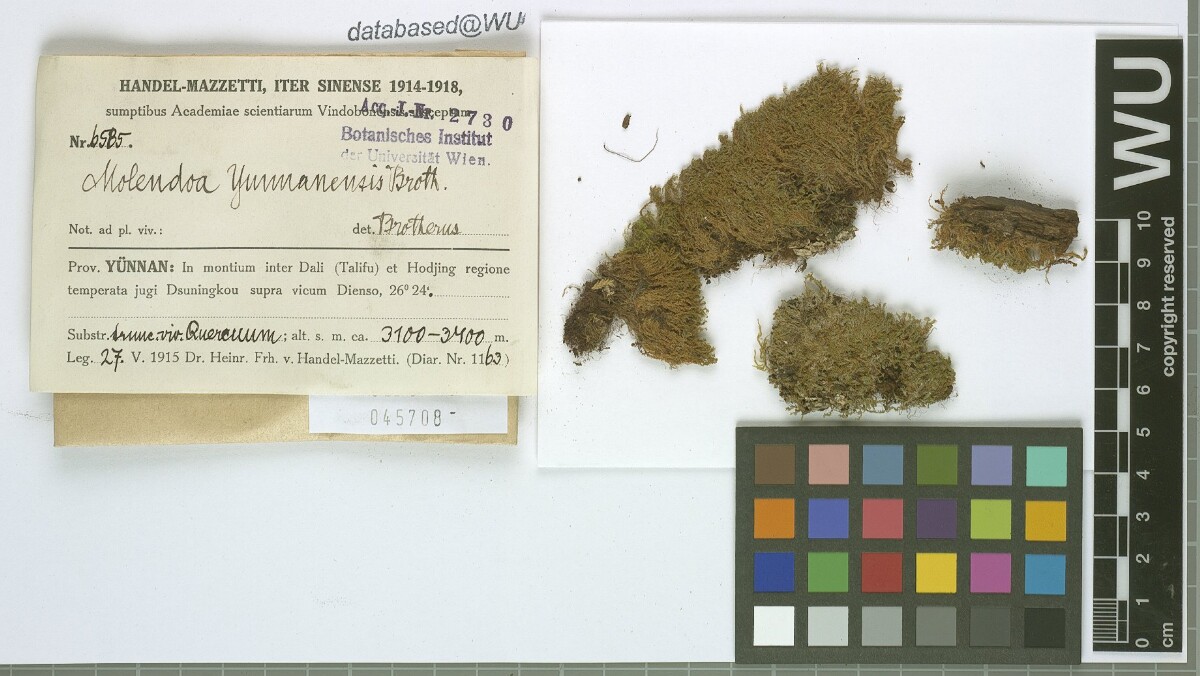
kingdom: Plantae
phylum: Bryophyta
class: Bryopsida
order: Pottiales
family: Pottiaceae
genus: Molendoa
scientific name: Molendoa sendtneriana
